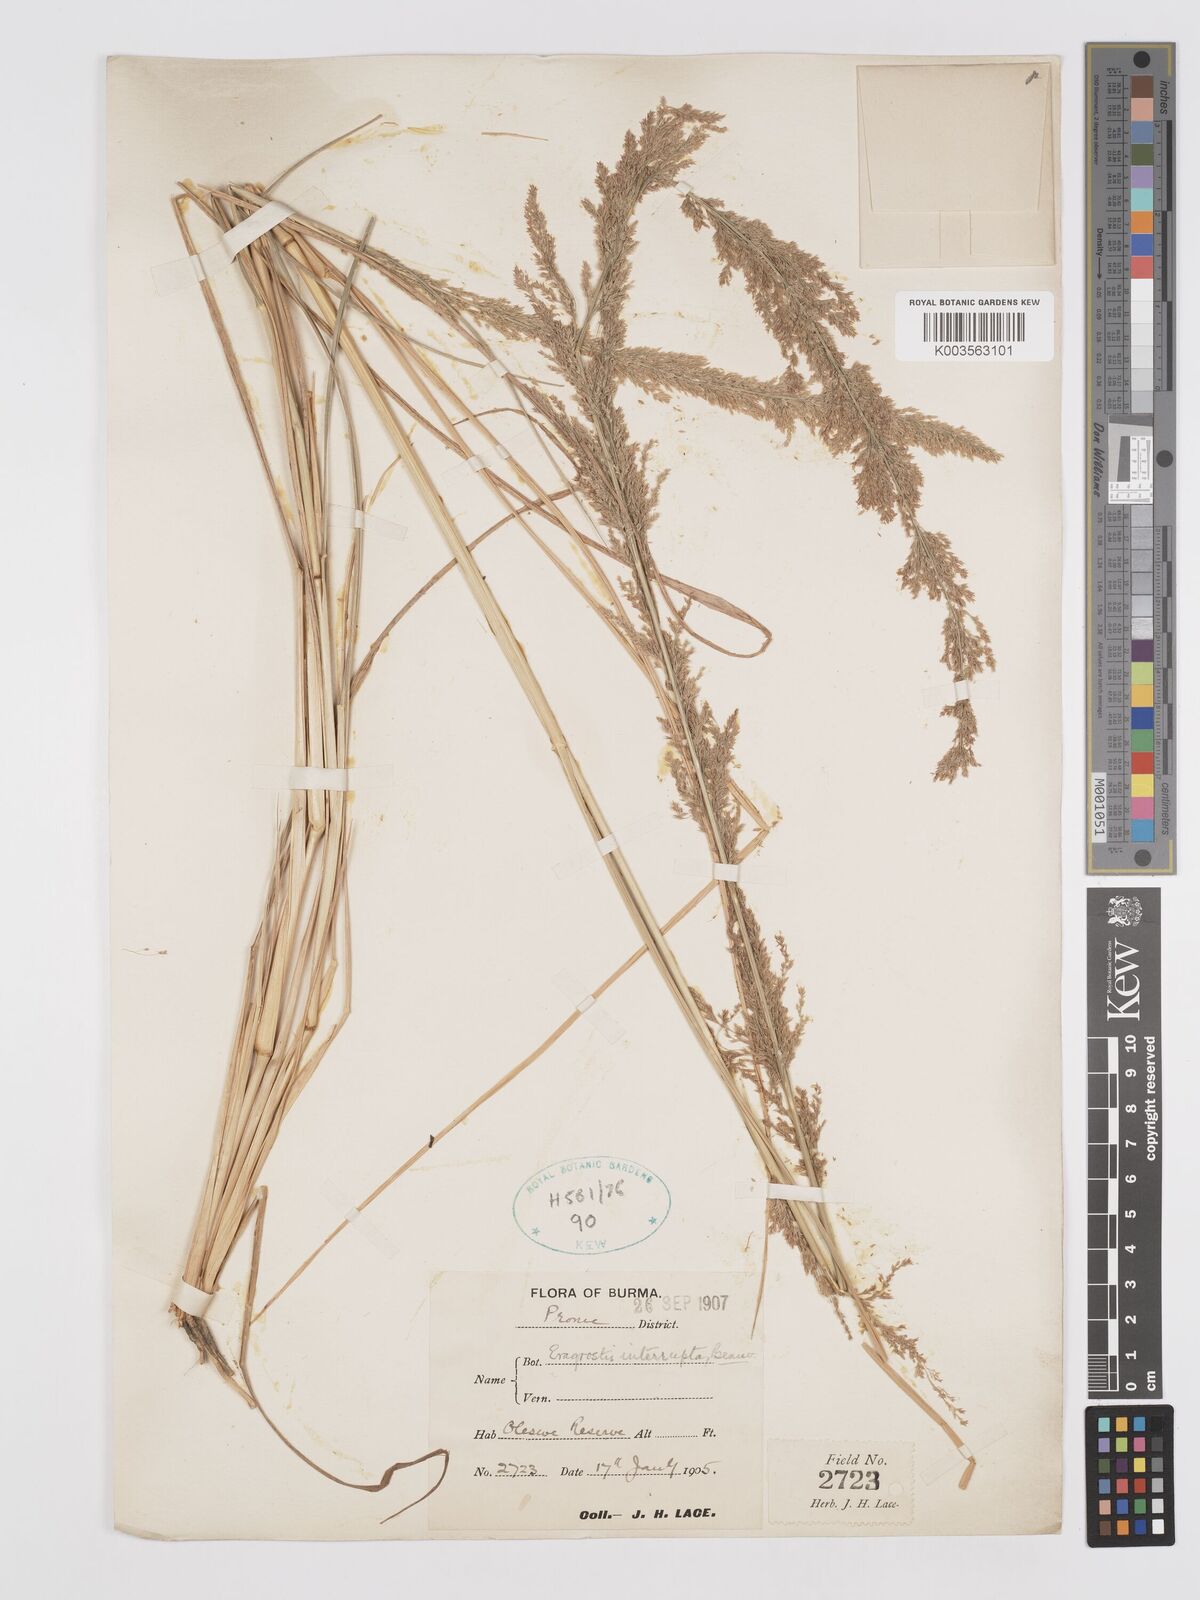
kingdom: Plantae
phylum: Tracheophyta
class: Liliopsida
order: Poales
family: Poaceae
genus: Eragrostis
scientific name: Eragrostis japonica
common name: Pond lovegrass
